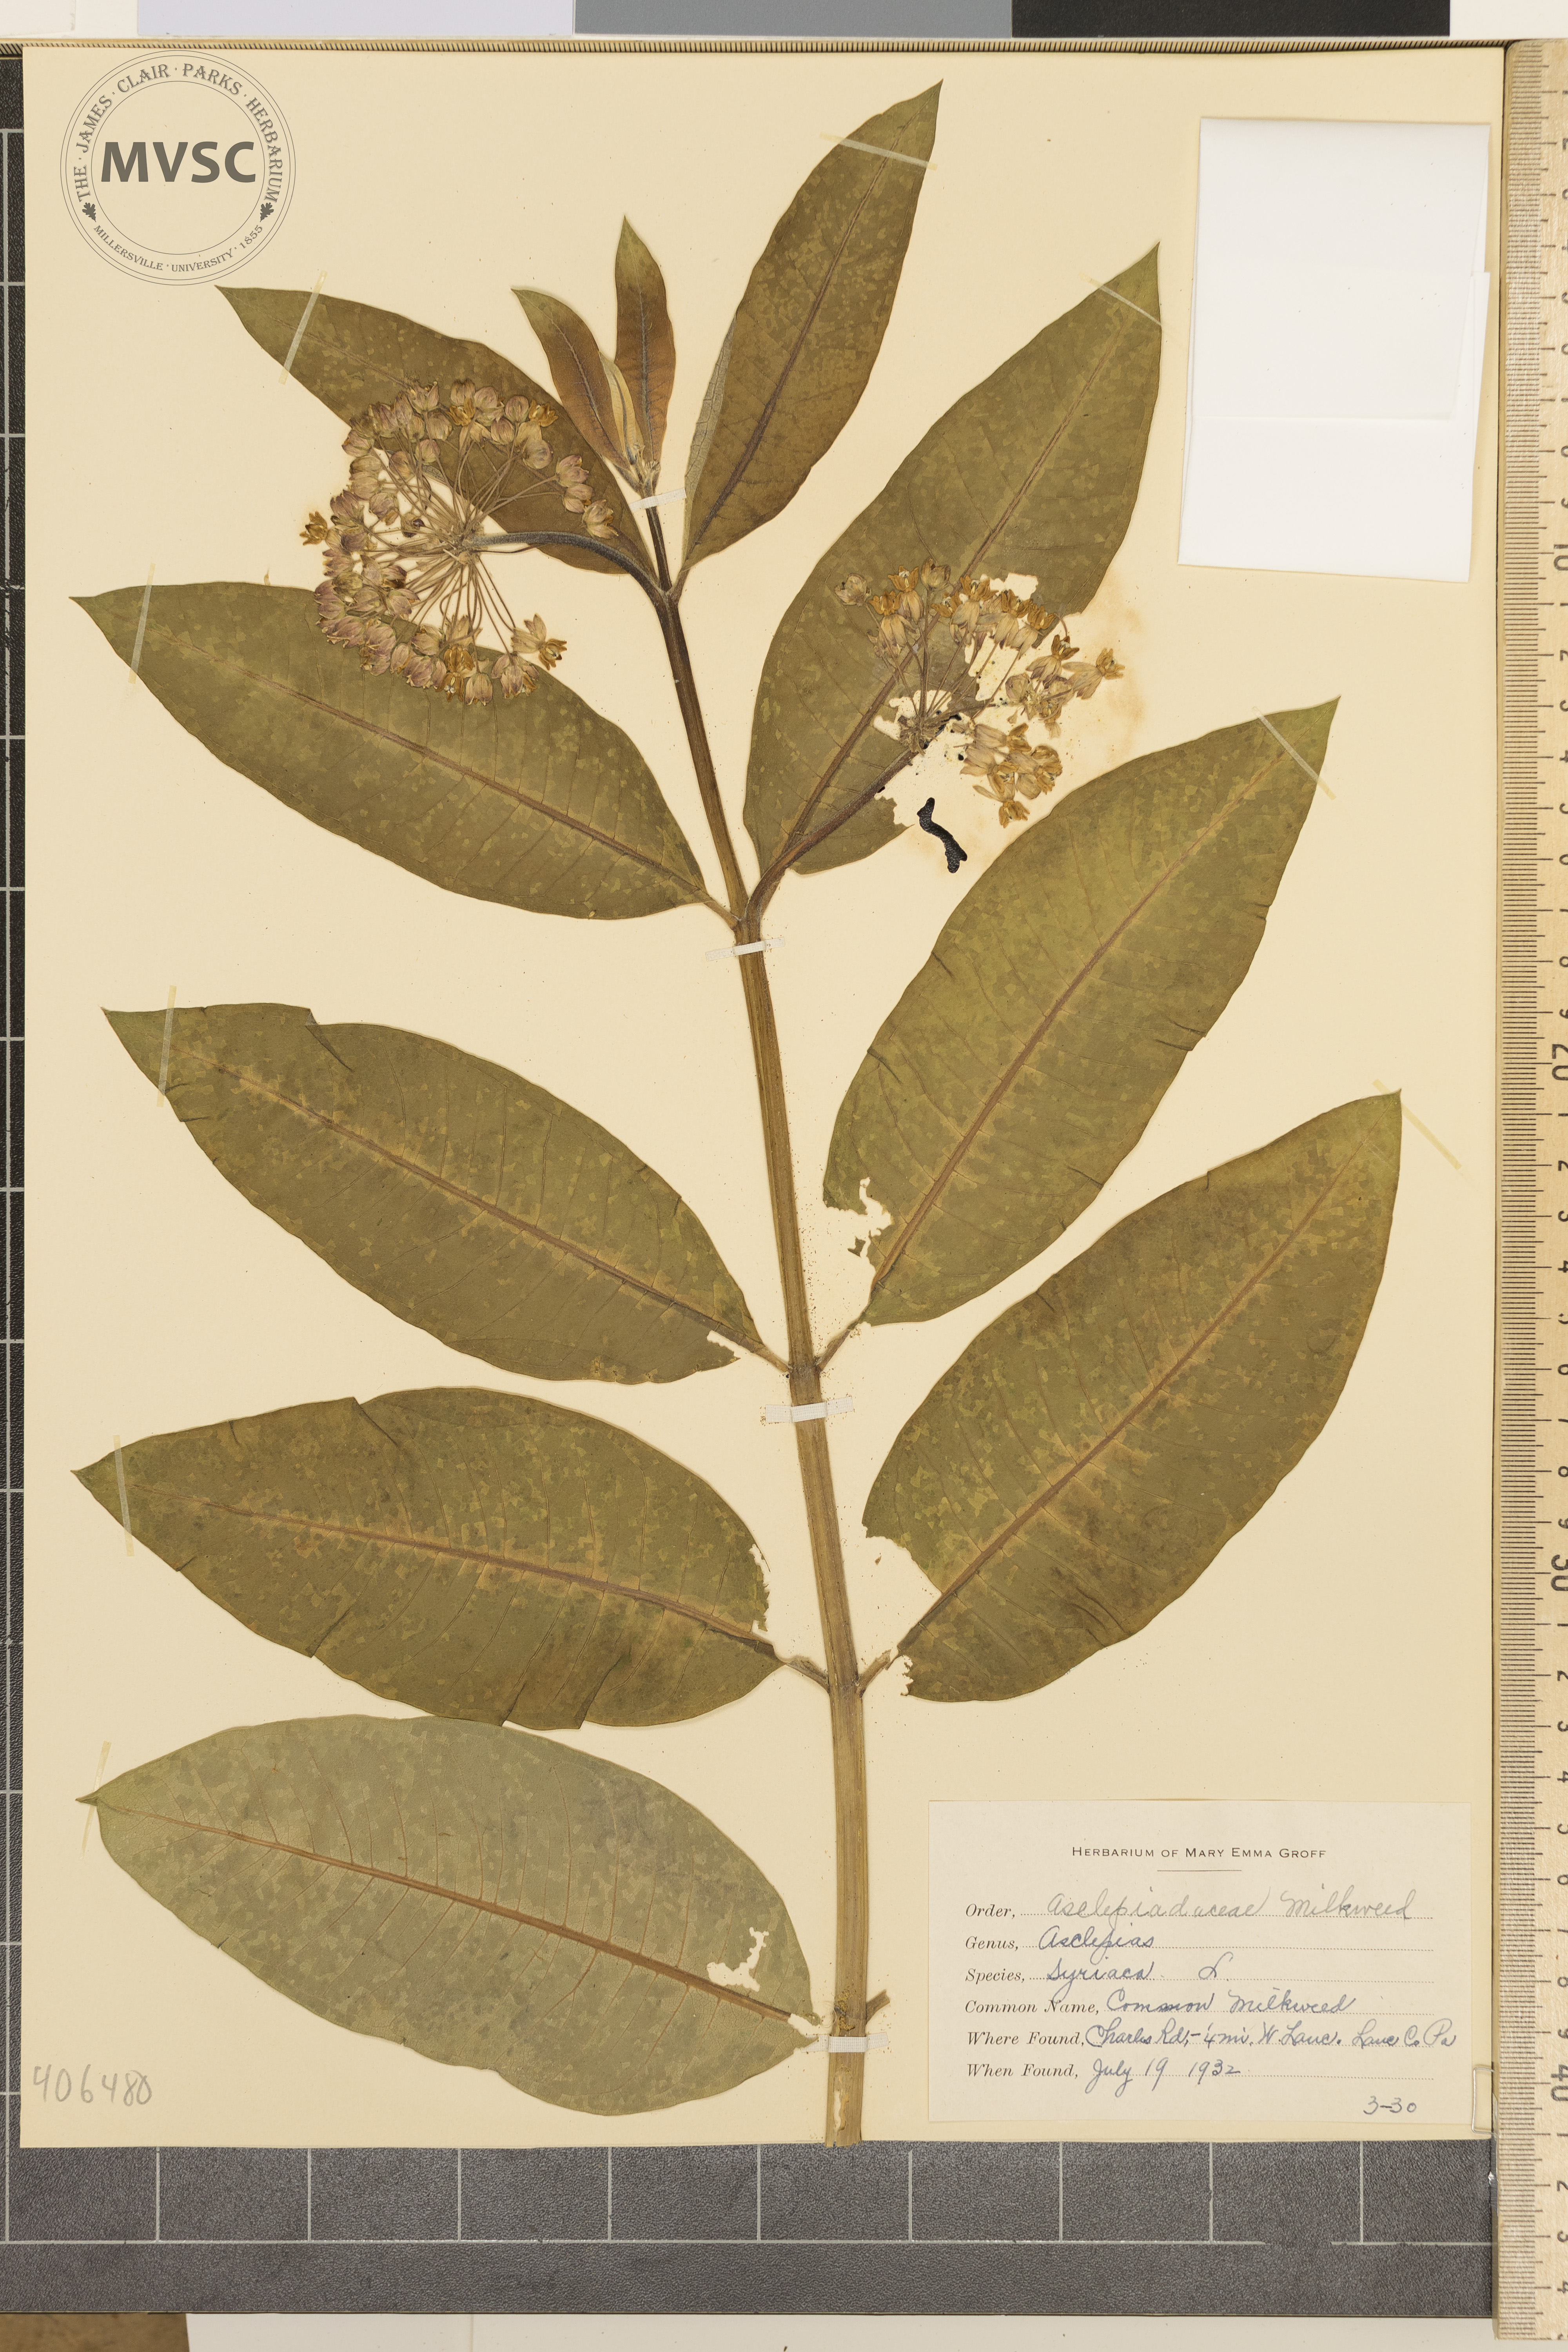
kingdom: Plantae
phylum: Tracheophyta
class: Magnoliopsida
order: Gentianales
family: Apocynaceae
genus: Asclepias
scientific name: Asclepias syriaca
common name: Common Milkweed
